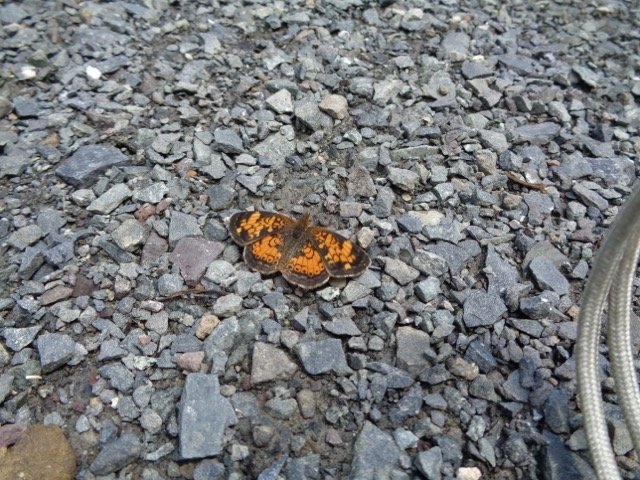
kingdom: Animalia
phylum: Arthropoda
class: Insecta
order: Lepidoptera
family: Nymphalidae
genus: Phyciodes
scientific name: Phyciodes tharos
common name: Pearl Crescent
